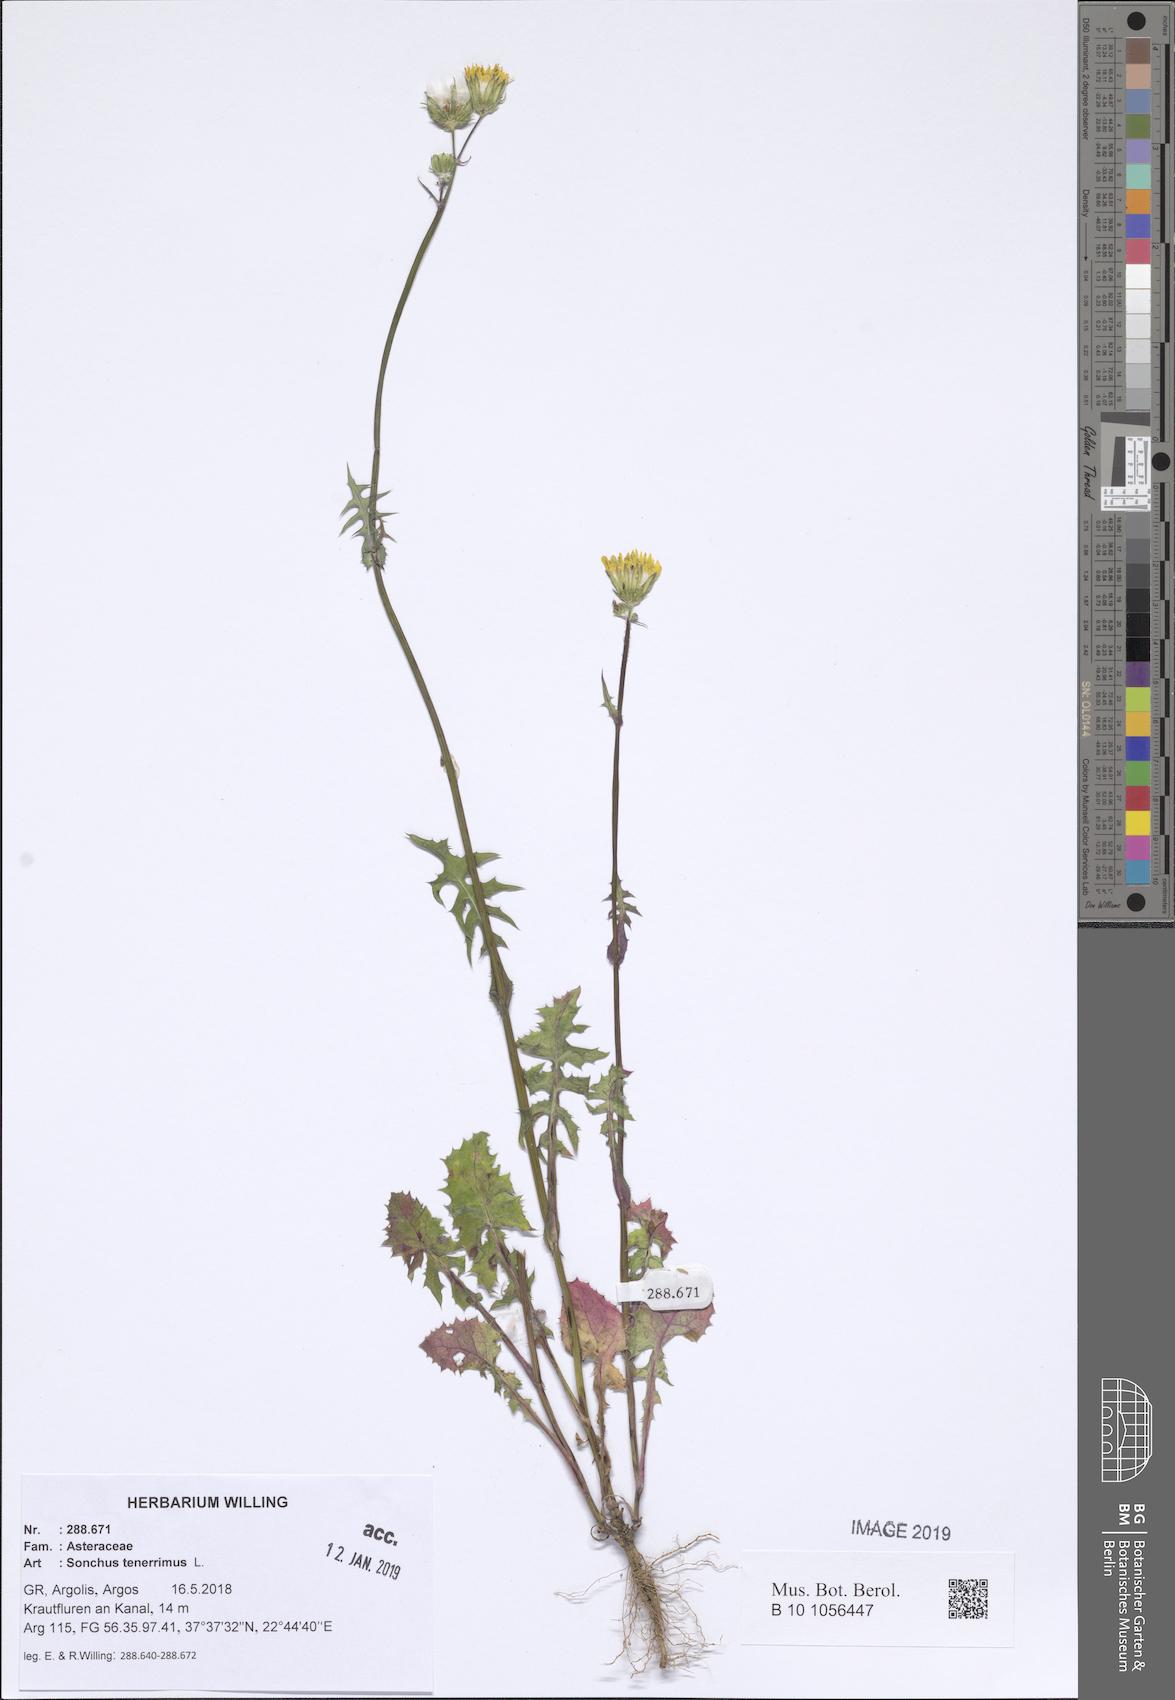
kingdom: Plantae
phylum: Tracheophyta
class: Magnoliopsida
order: Asterales
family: Asteraceae
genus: Sonchus
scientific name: Sonchus tenerrimus
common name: Clammy sowthistle
